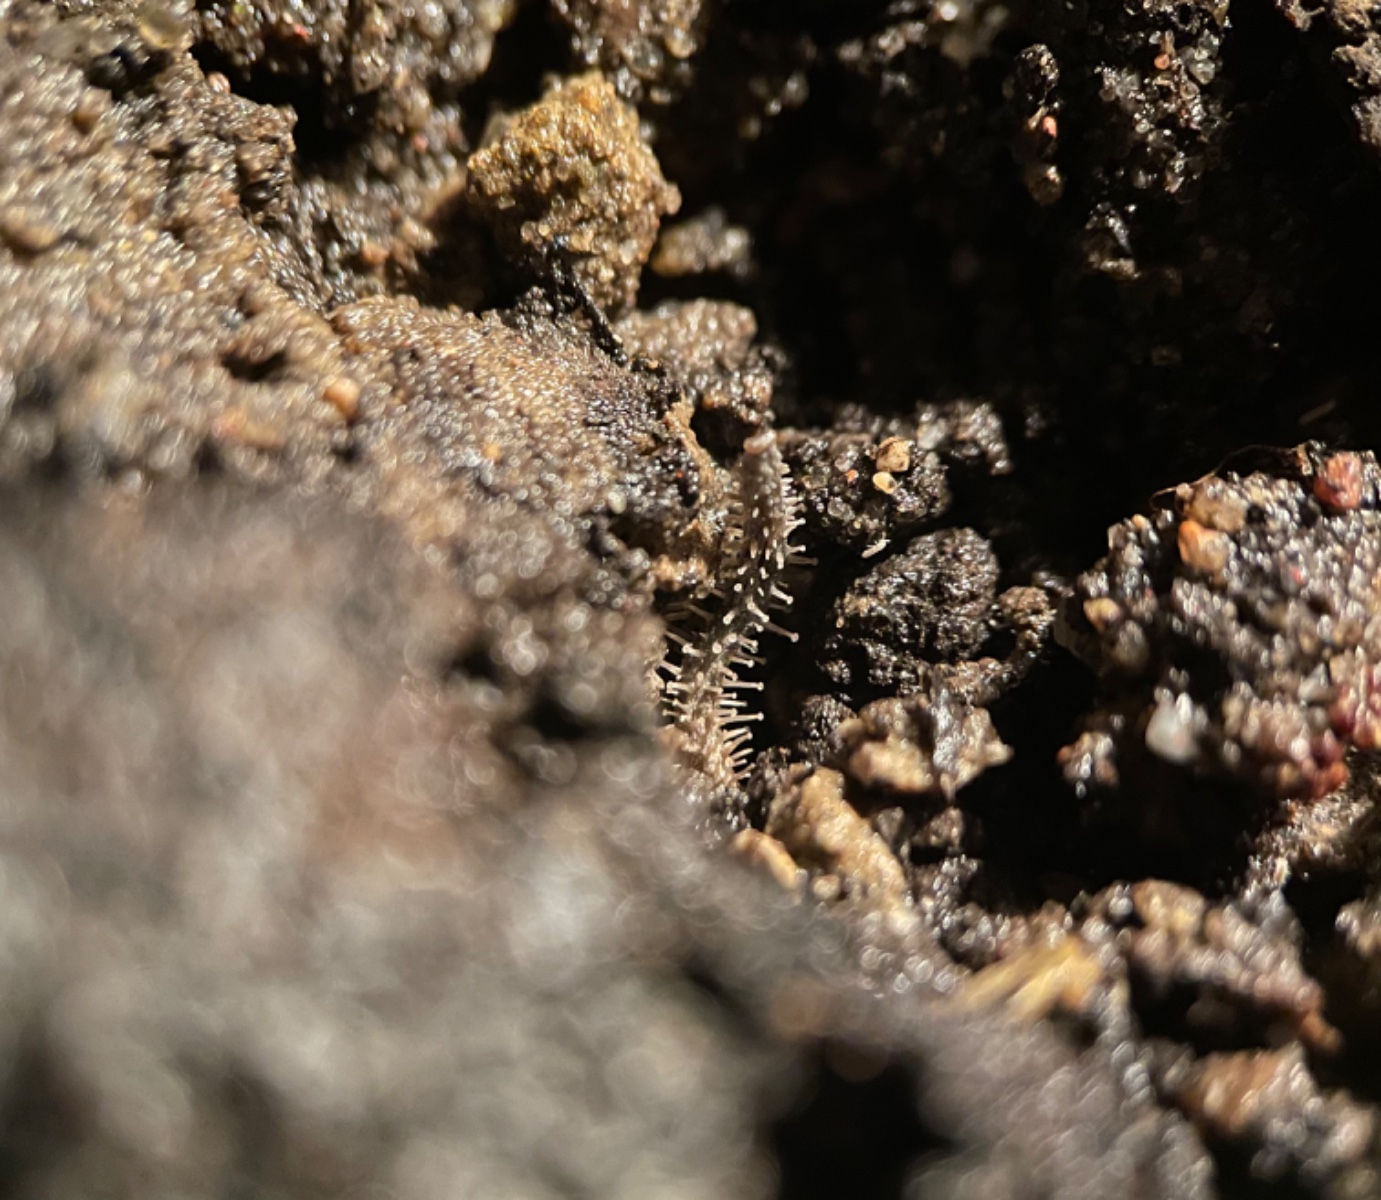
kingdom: Fungi
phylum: Basidiomycota
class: Agaricomycetes
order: Agaricales
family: Tricholomataceae
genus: Dendrocollybia
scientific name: Dendrocollybia racemosa
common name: grenet lighat
